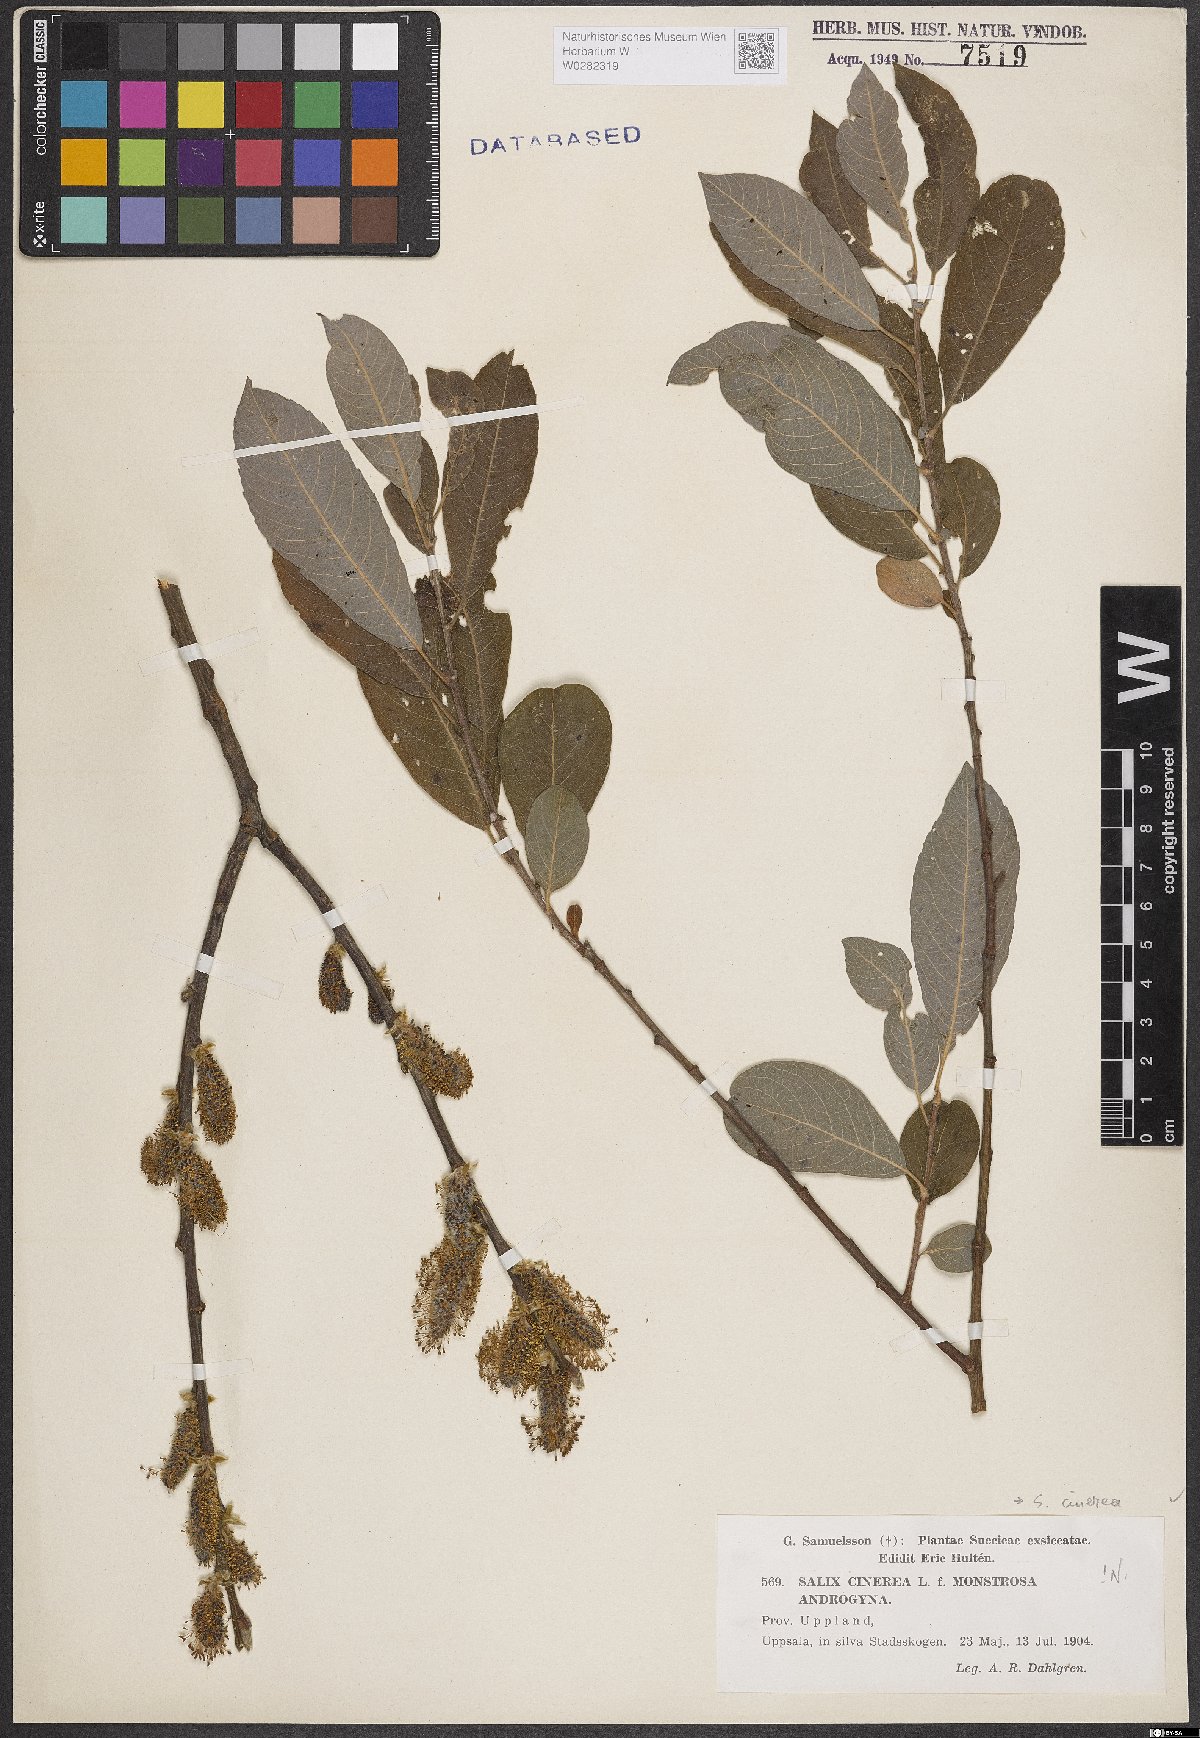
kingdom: Plantae
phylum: Tracheophyta
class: Magnoliopsida
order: Malpighiales
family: Salicaceae
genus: Salix
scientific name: Salix cinerea
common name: Common sallow
